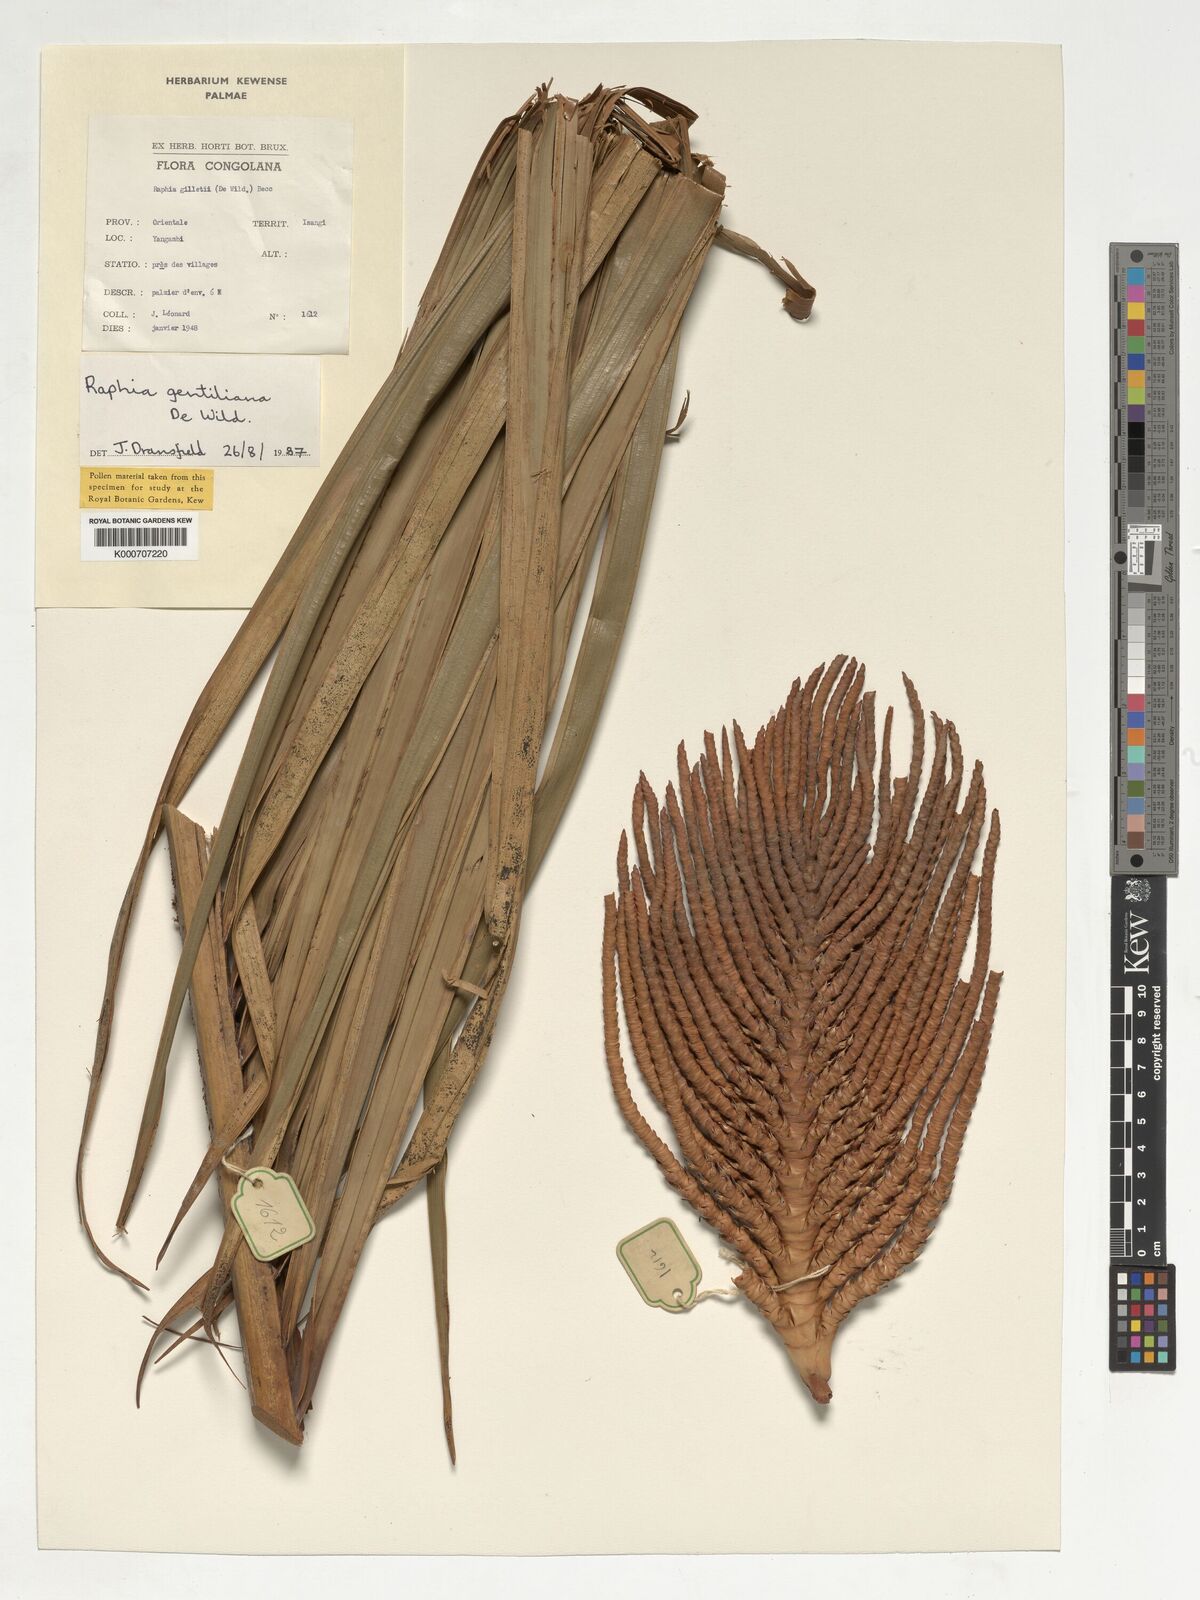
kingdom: Plantae
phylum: Tracheophyta
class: Liliopsida
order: Arecales
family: Arecaceae
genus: Raphia
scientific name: Raphia gentiliana
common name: Raphia palm
